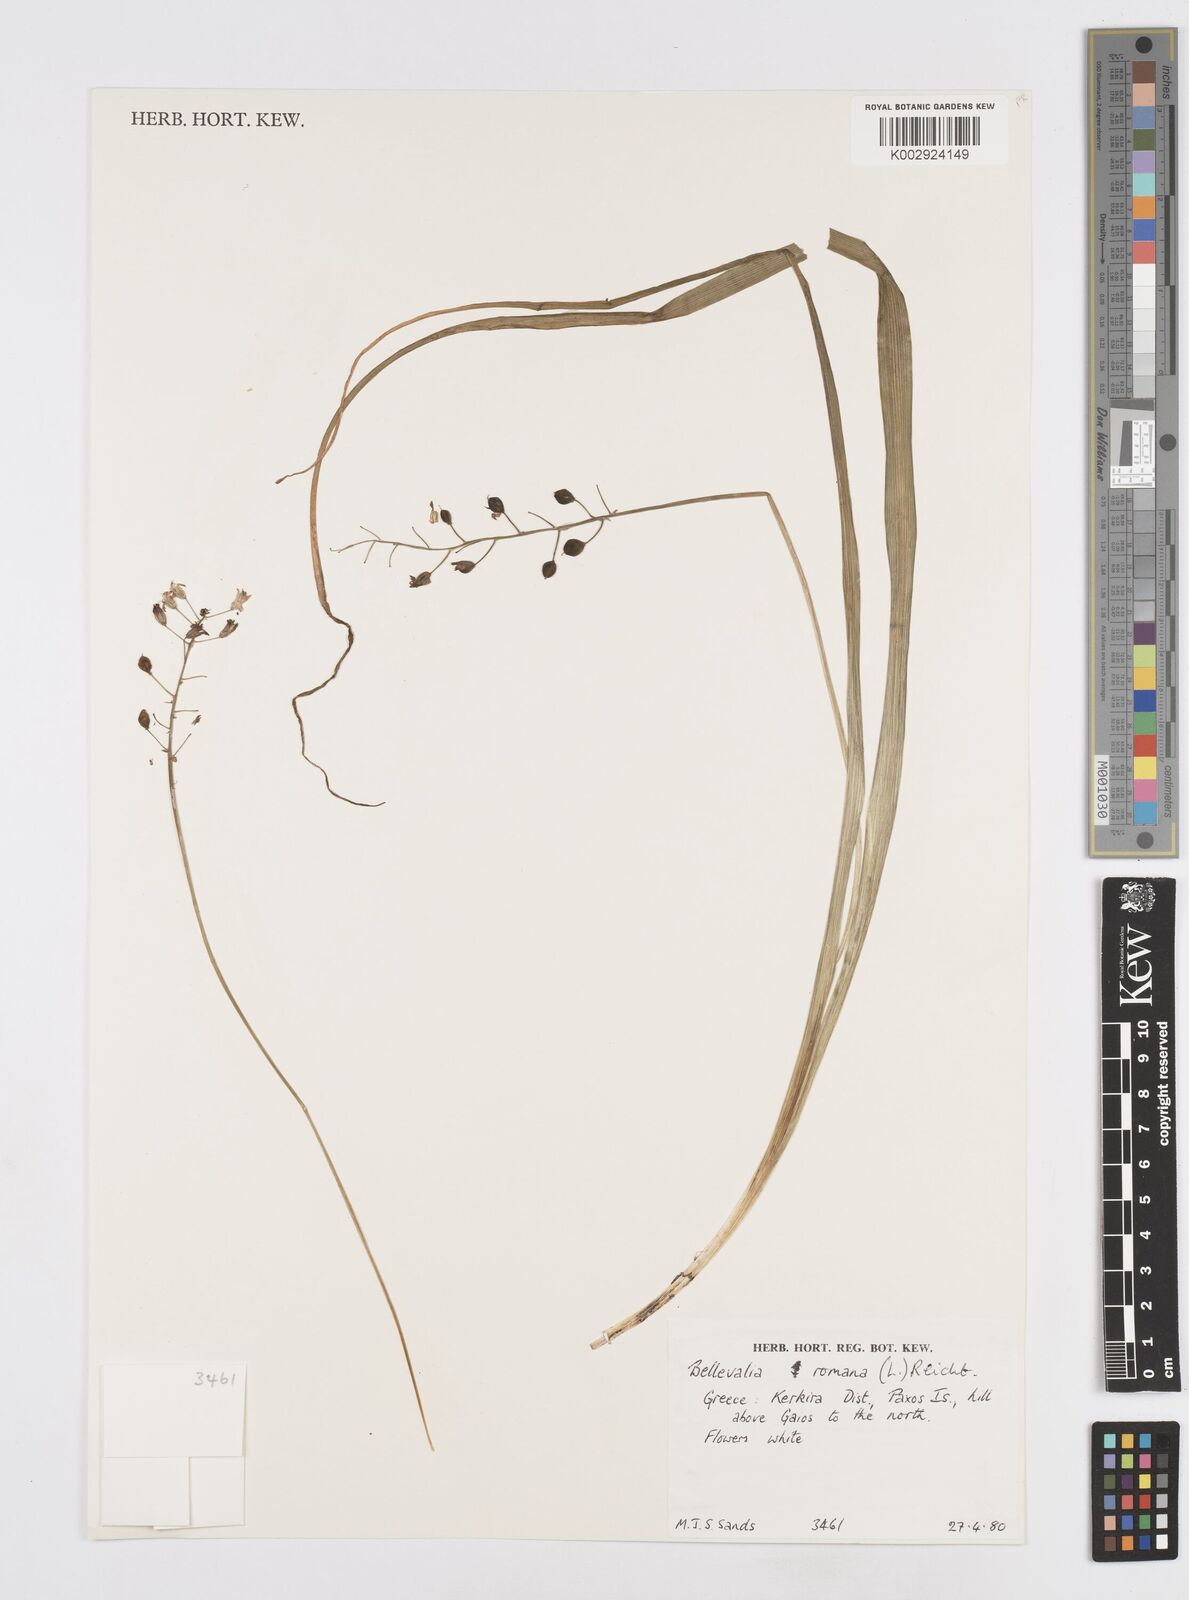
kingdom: Plantae
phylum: Tracheophyta
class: Liliopsida
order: Asparagales
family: Asparagaceae
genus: Bellevalia
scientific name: Bellevalia
